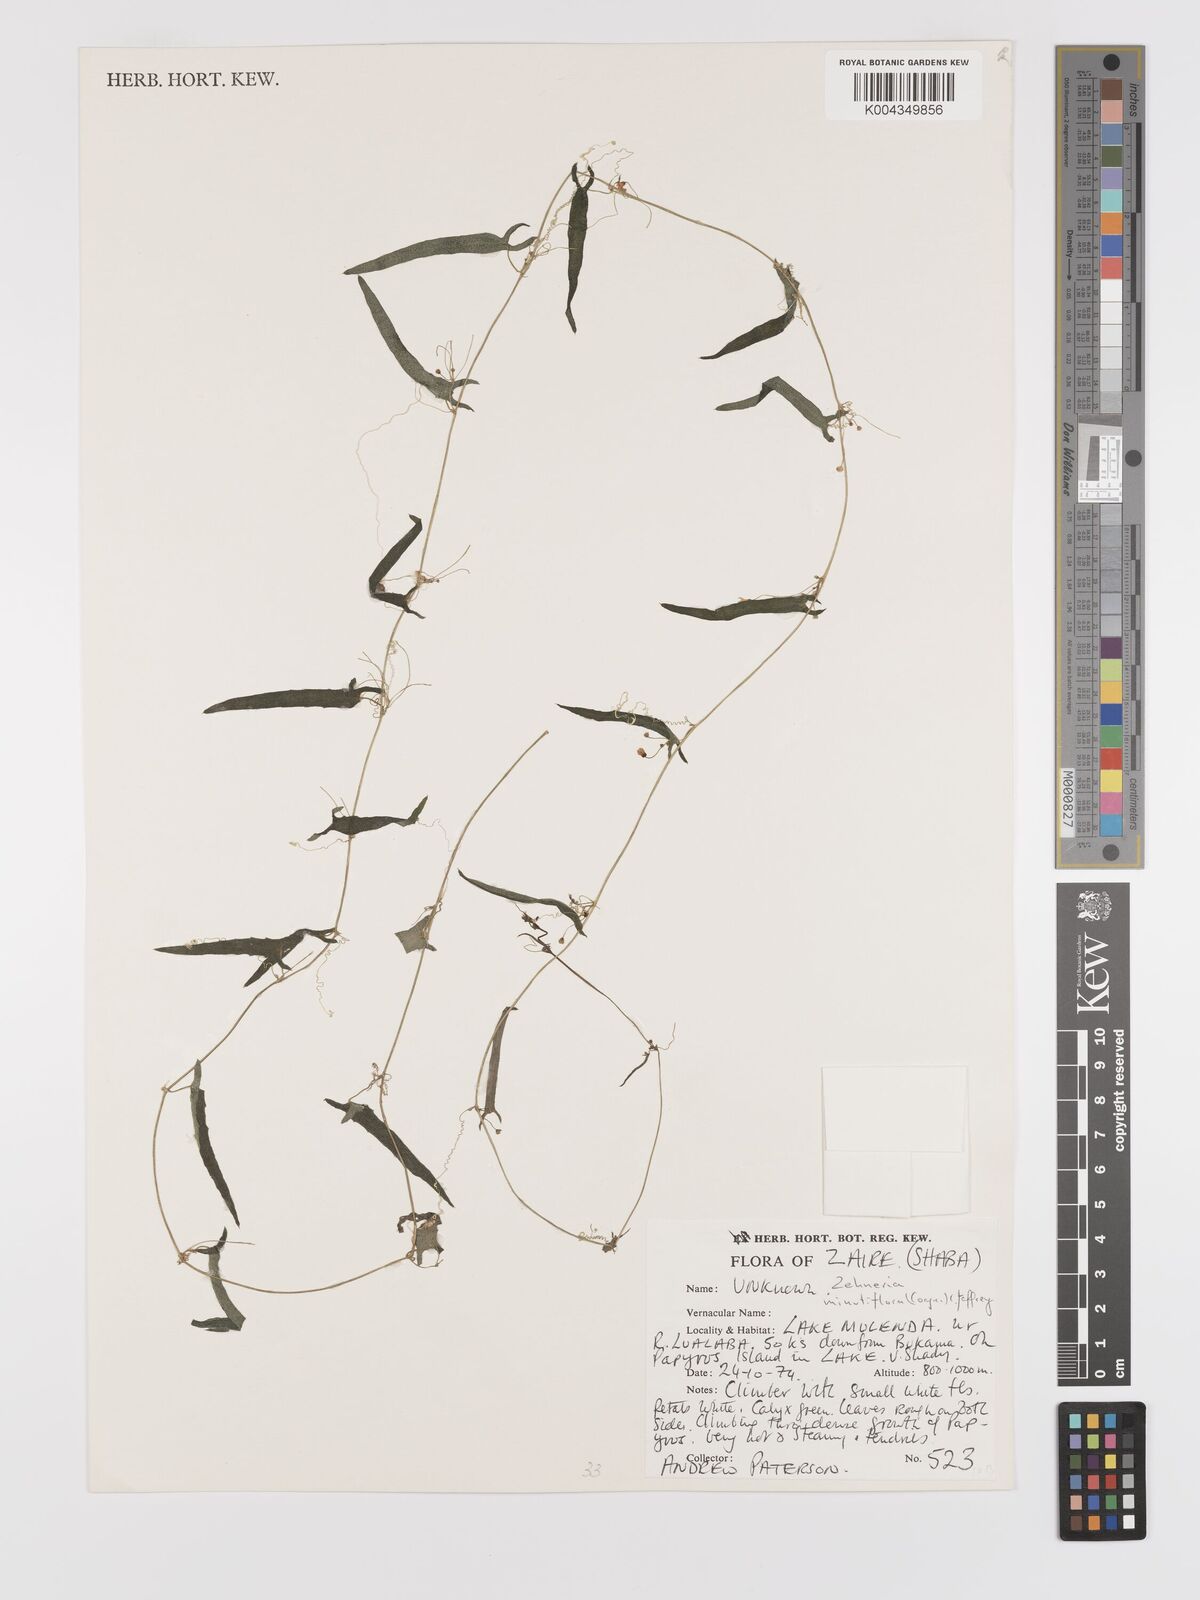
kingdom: Plantae
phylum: Tracheophyta
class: Magnoliopsida
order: Cucurbitales
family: Cucurbitaceae
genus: Zehneria
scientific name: Zehneria minutiflora
